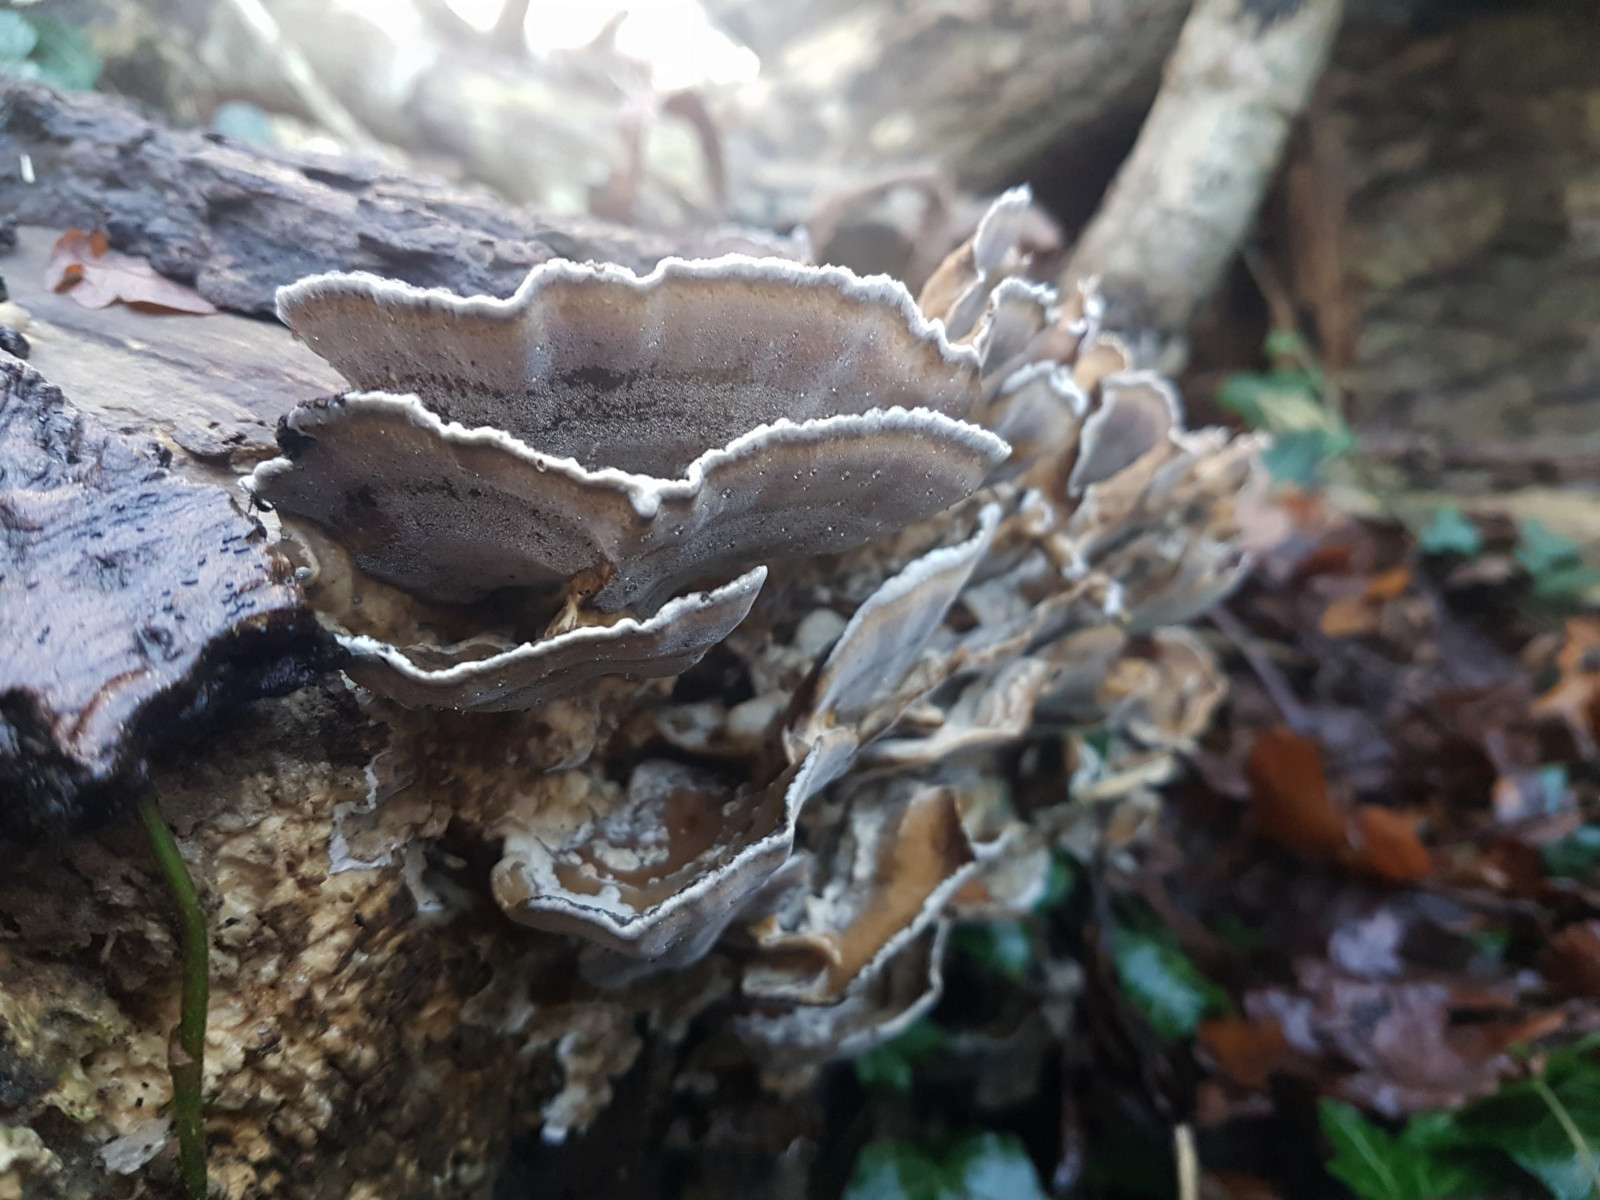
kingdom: Fungi
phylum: Basidiomycota
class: Agaricomycetes
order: Polyporales
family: Phanerochaetaceae
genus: Bjerkandera
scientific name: Bjerkandera adusta
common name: sveden sodporesvamp
